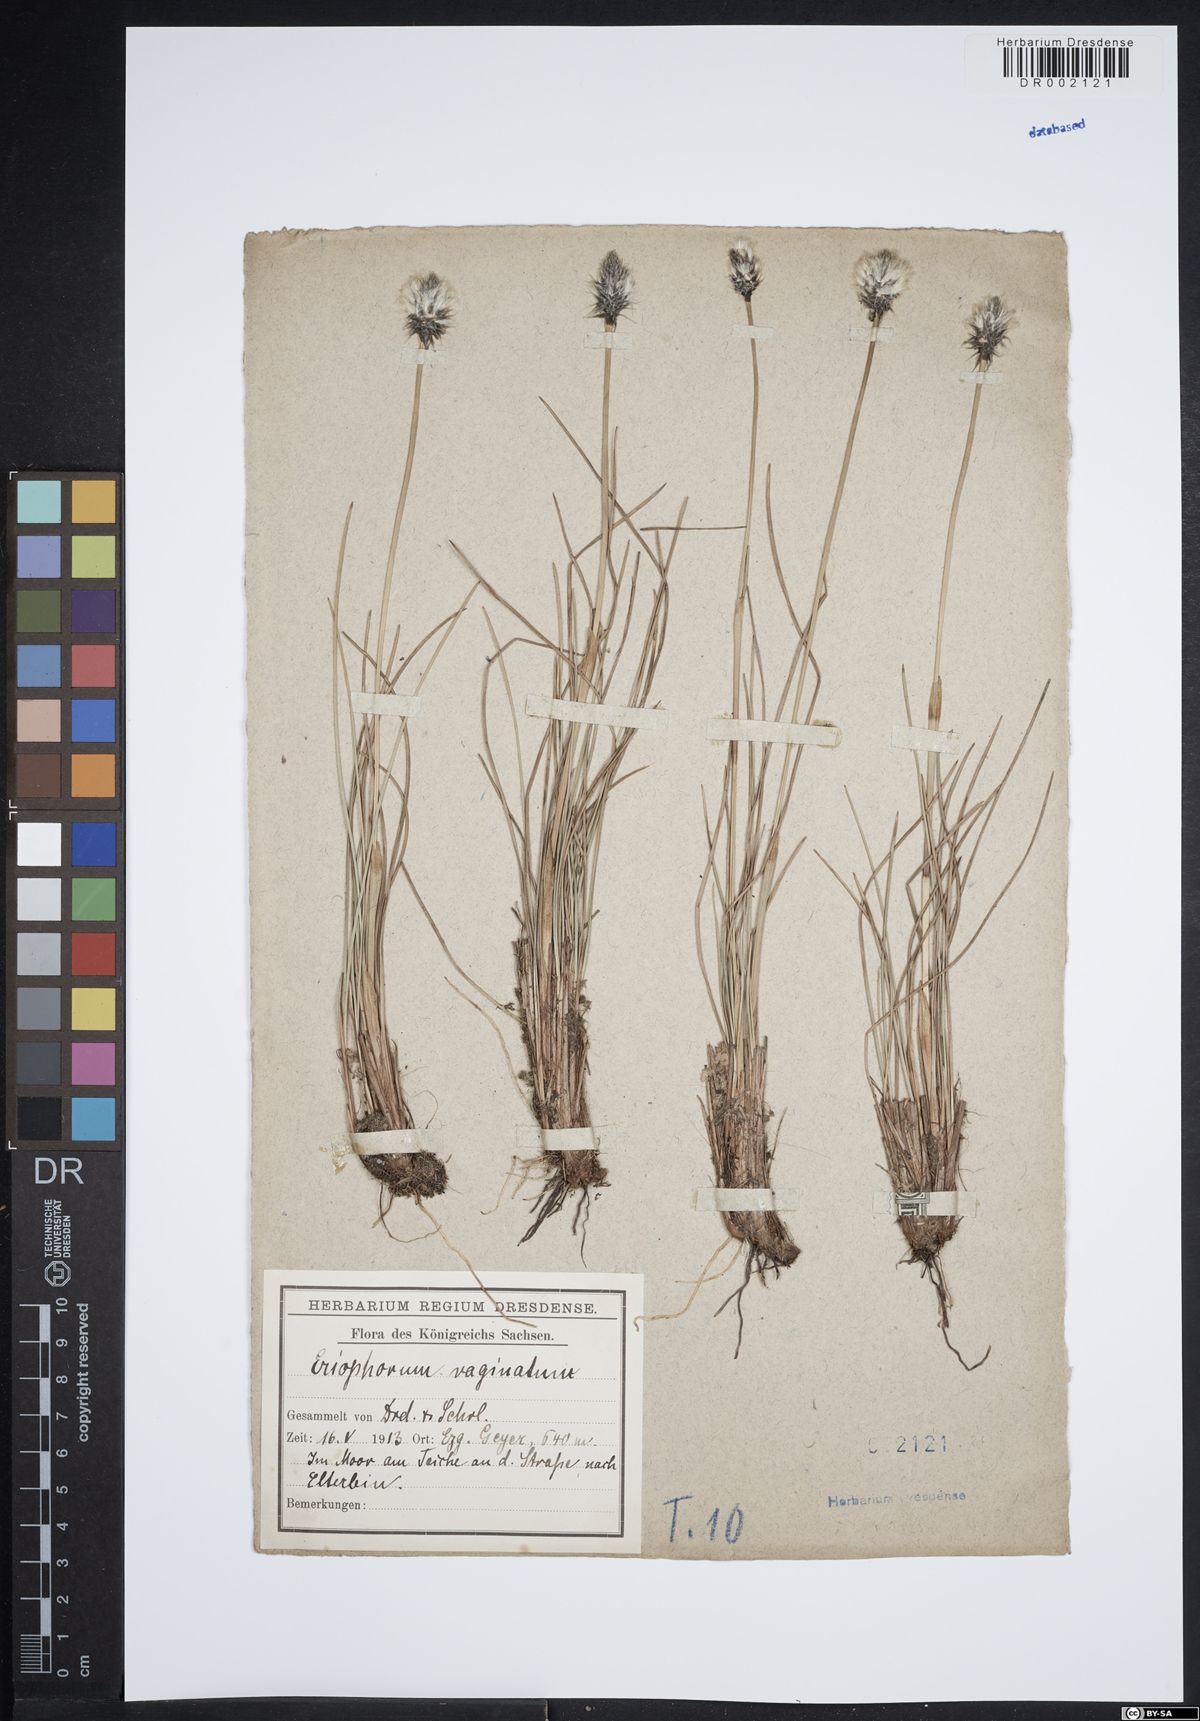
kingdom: Plantae
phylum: Tracheophyta
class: Liliopsida
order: Poales
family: Cyperaceae
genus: Eriophorum
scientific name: Eriophorum vaginatum
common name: Hare's-tail cottongrass
